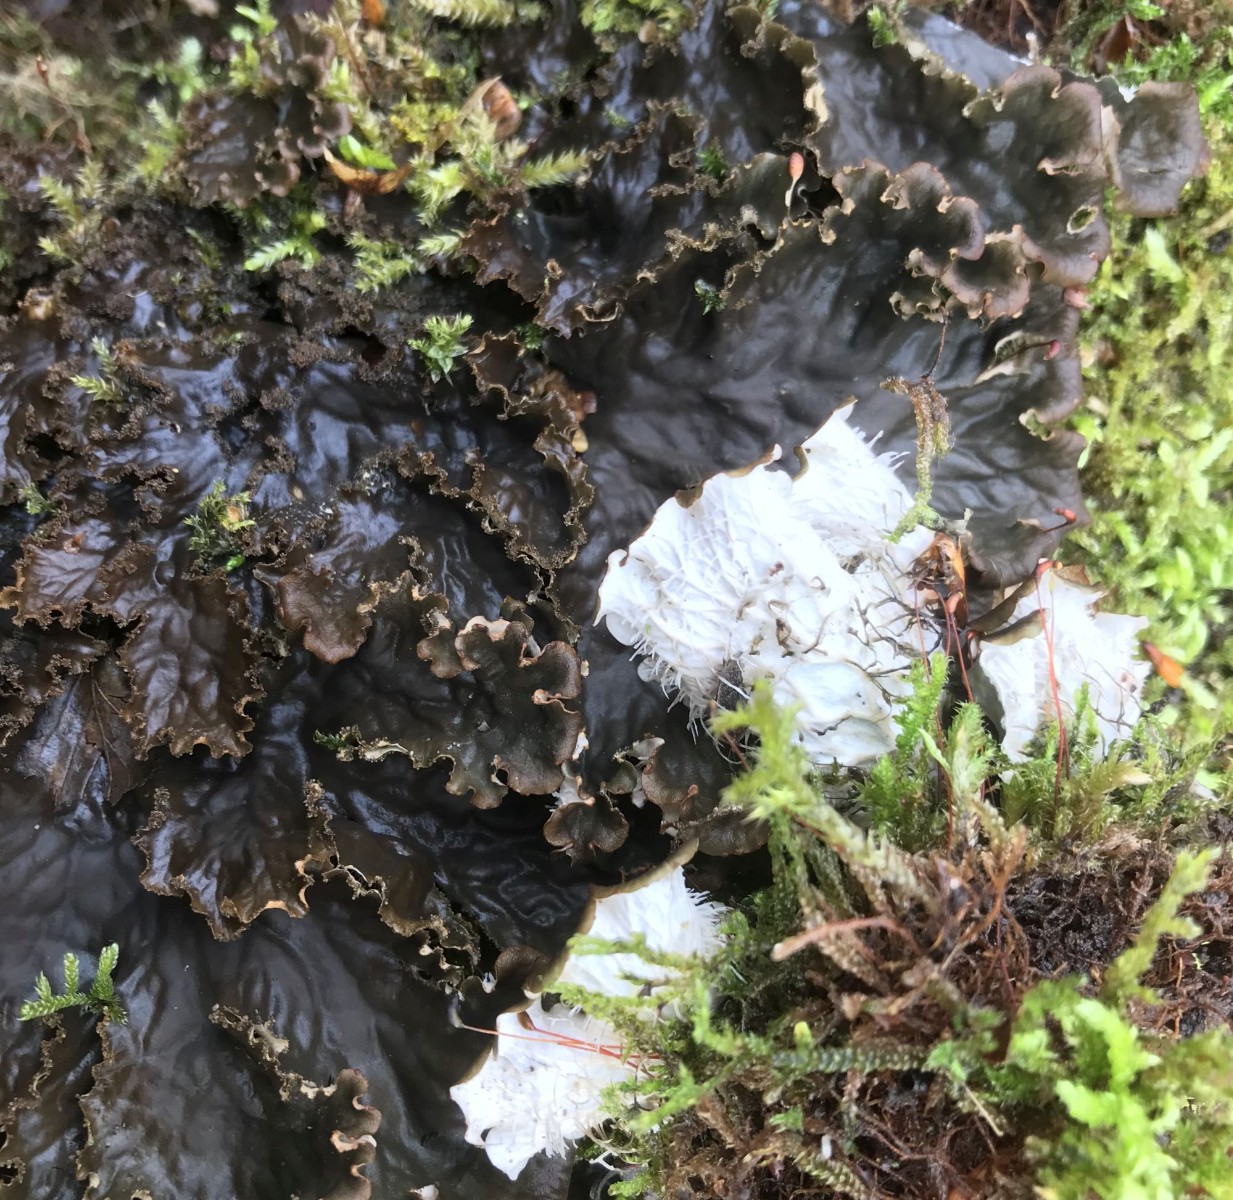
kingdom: Fungi
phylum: Ascomycota
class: Lecanoromycetes
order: Peltigerales
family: Peltigeraceae
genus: Peltigera
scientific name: Peltigera praetextata
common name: kruset skjoldlav
